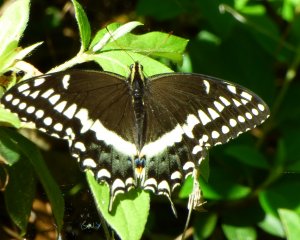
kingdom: Animalia
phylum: Arthropoda
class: Insecta
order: Lepidoptera
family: Papilionidae
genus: Pterourus
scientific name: Pterourus palamedes
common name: Palamedes Swallowtail
